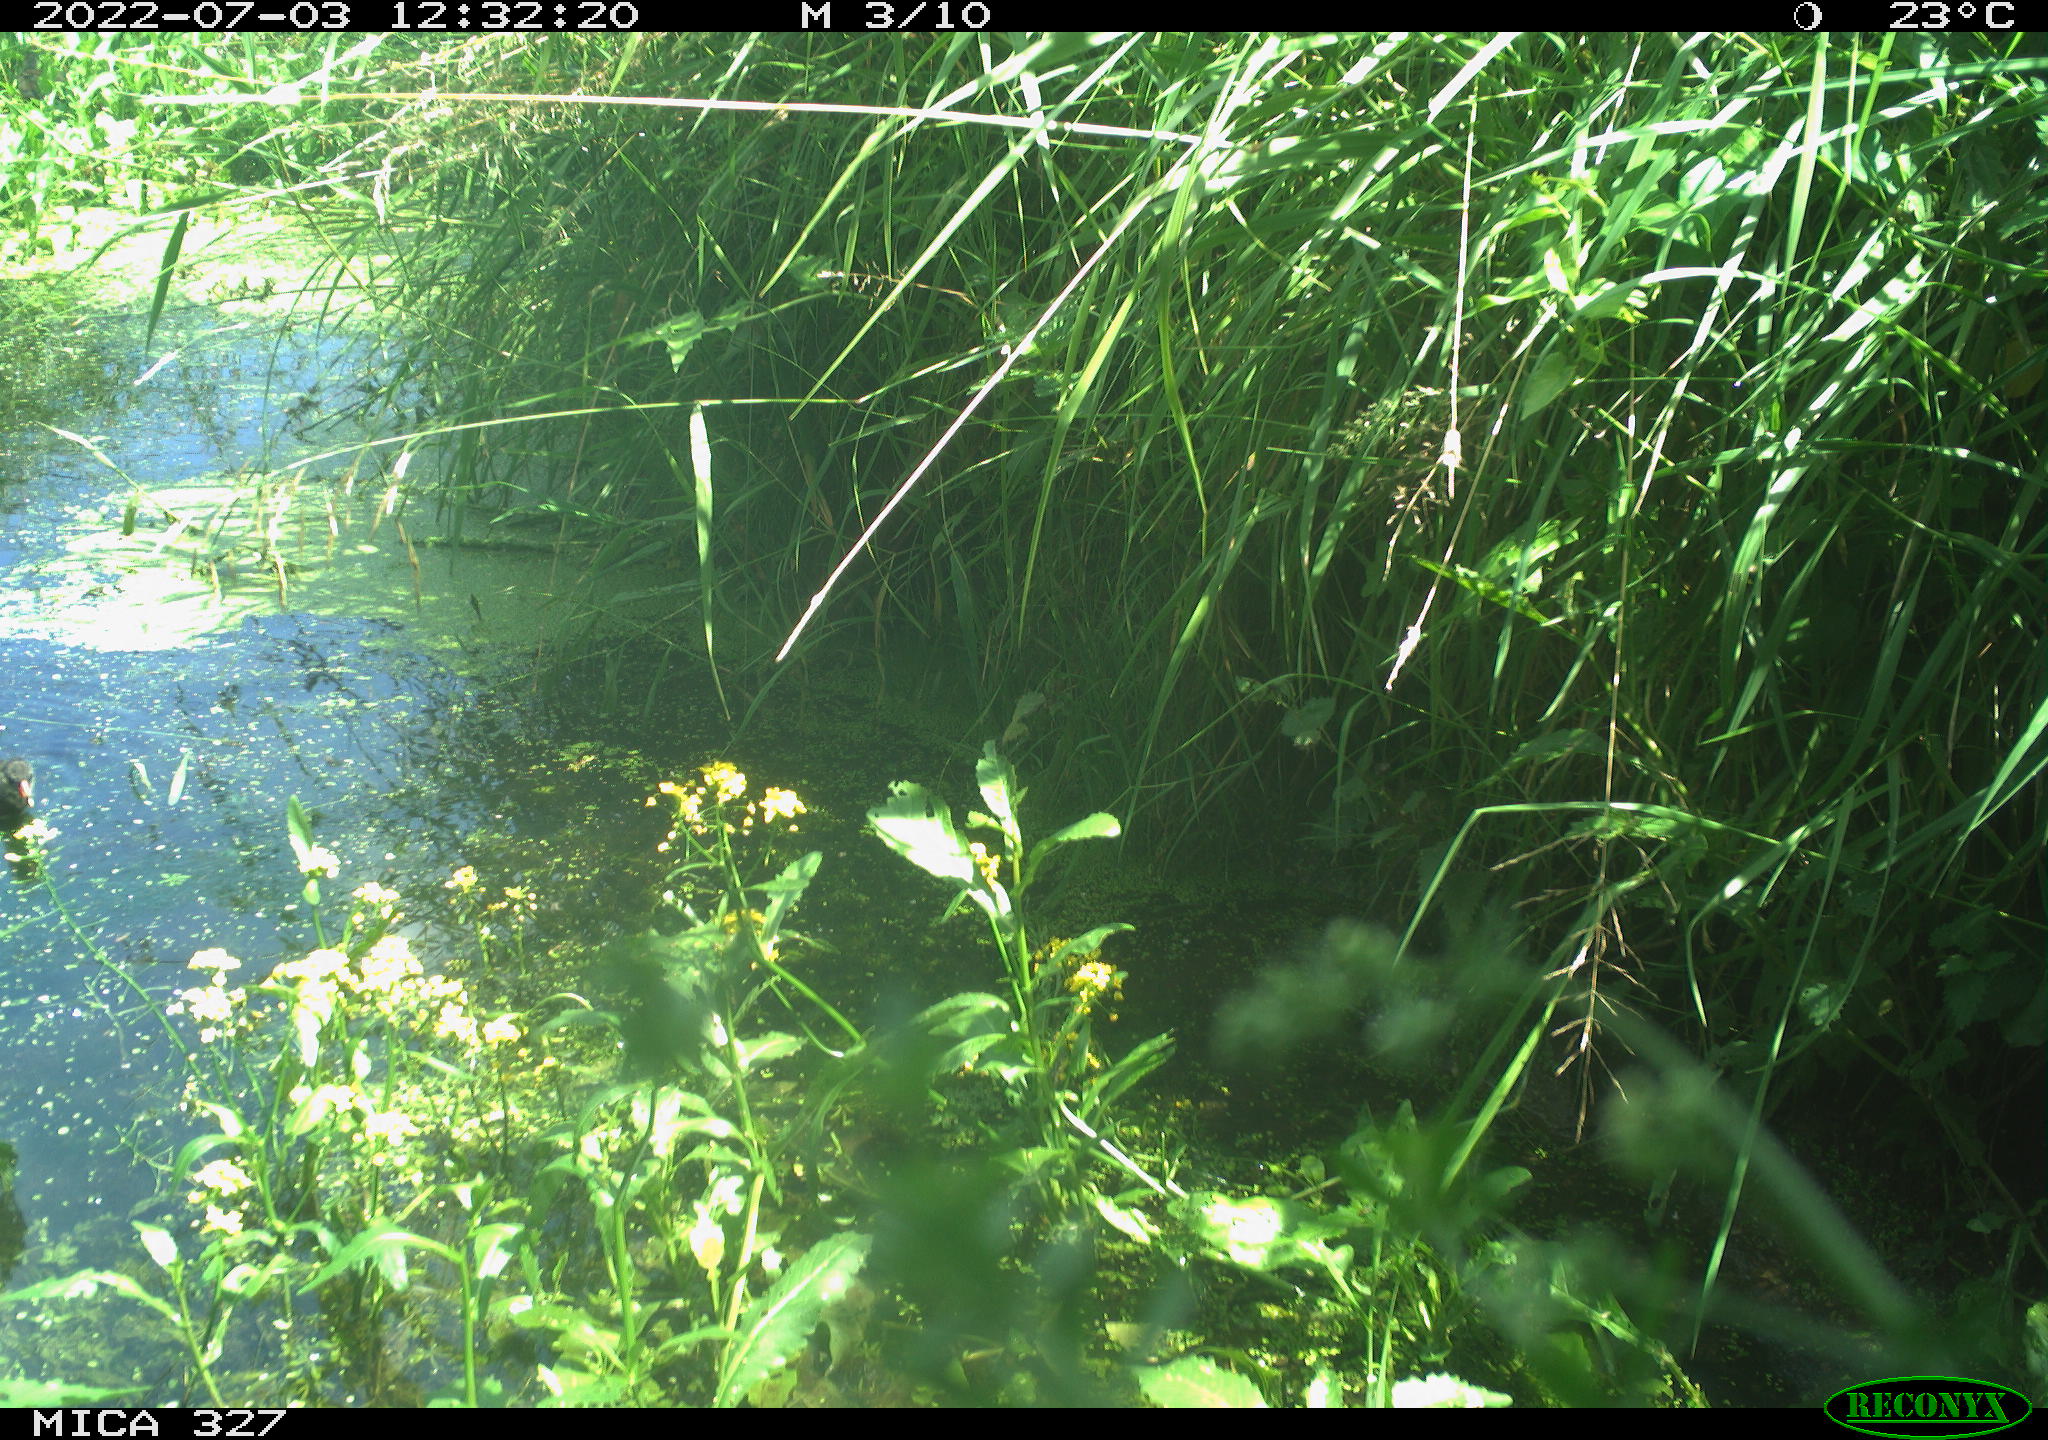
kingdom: Animalia
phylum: Chordata
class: Aves
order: Gruiformes
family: Rallidae
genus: Gallinula
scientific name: Gallinula chloropus
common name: Common moorhen
